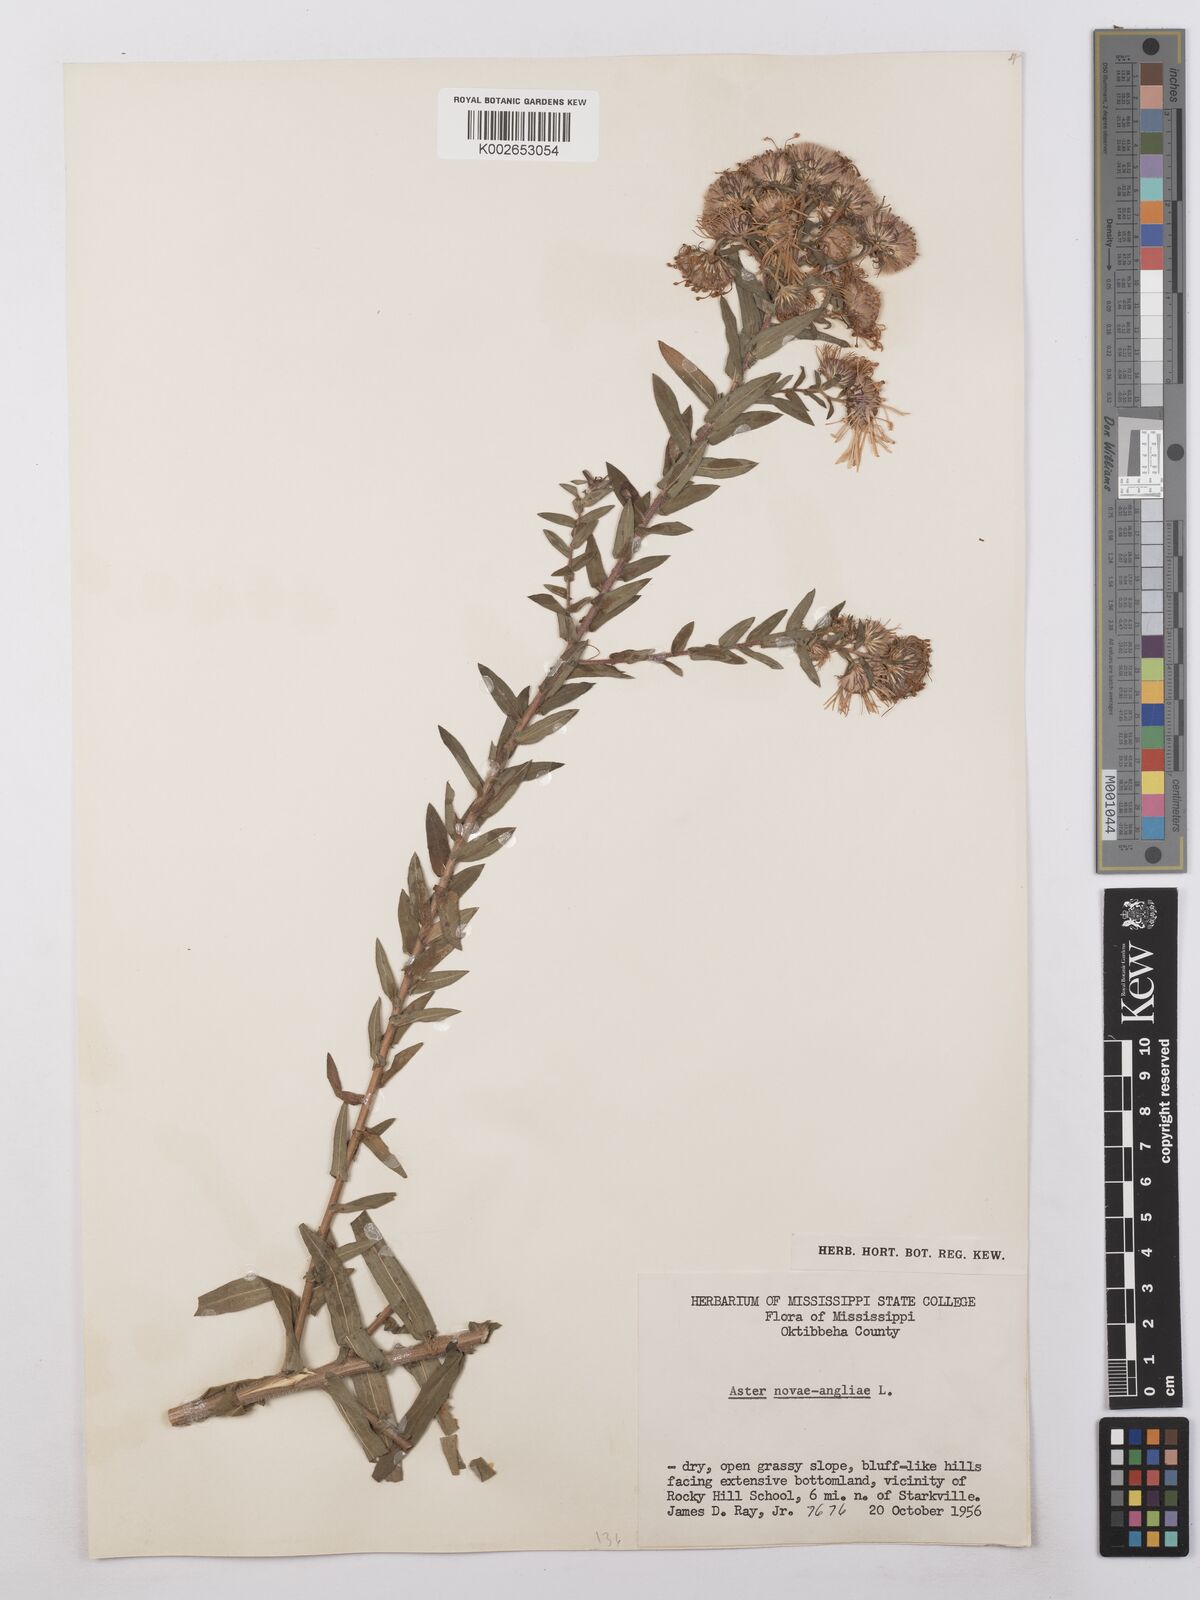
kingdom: Plantae
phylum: Tracheophyta
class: Magnoliopsida
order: Asterales
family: Asteraceae
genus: Symphyotrichum
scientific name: Symphyotrichum novae-angliae
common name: Michaelmas daisy
